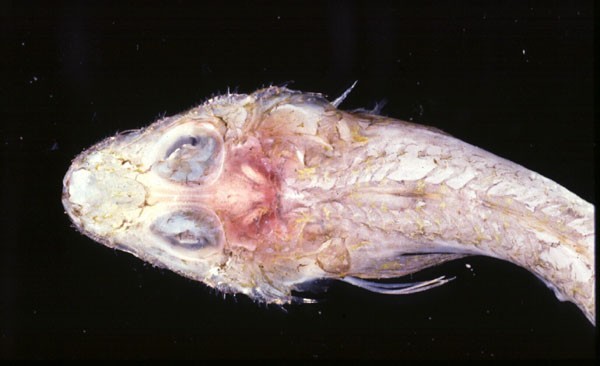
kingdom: Animalia
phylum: Chordata
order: Scorpaeniformes
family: Hoplichthyidae
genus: Hoplichthys
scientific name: Hoplichthys acanthopleurus
